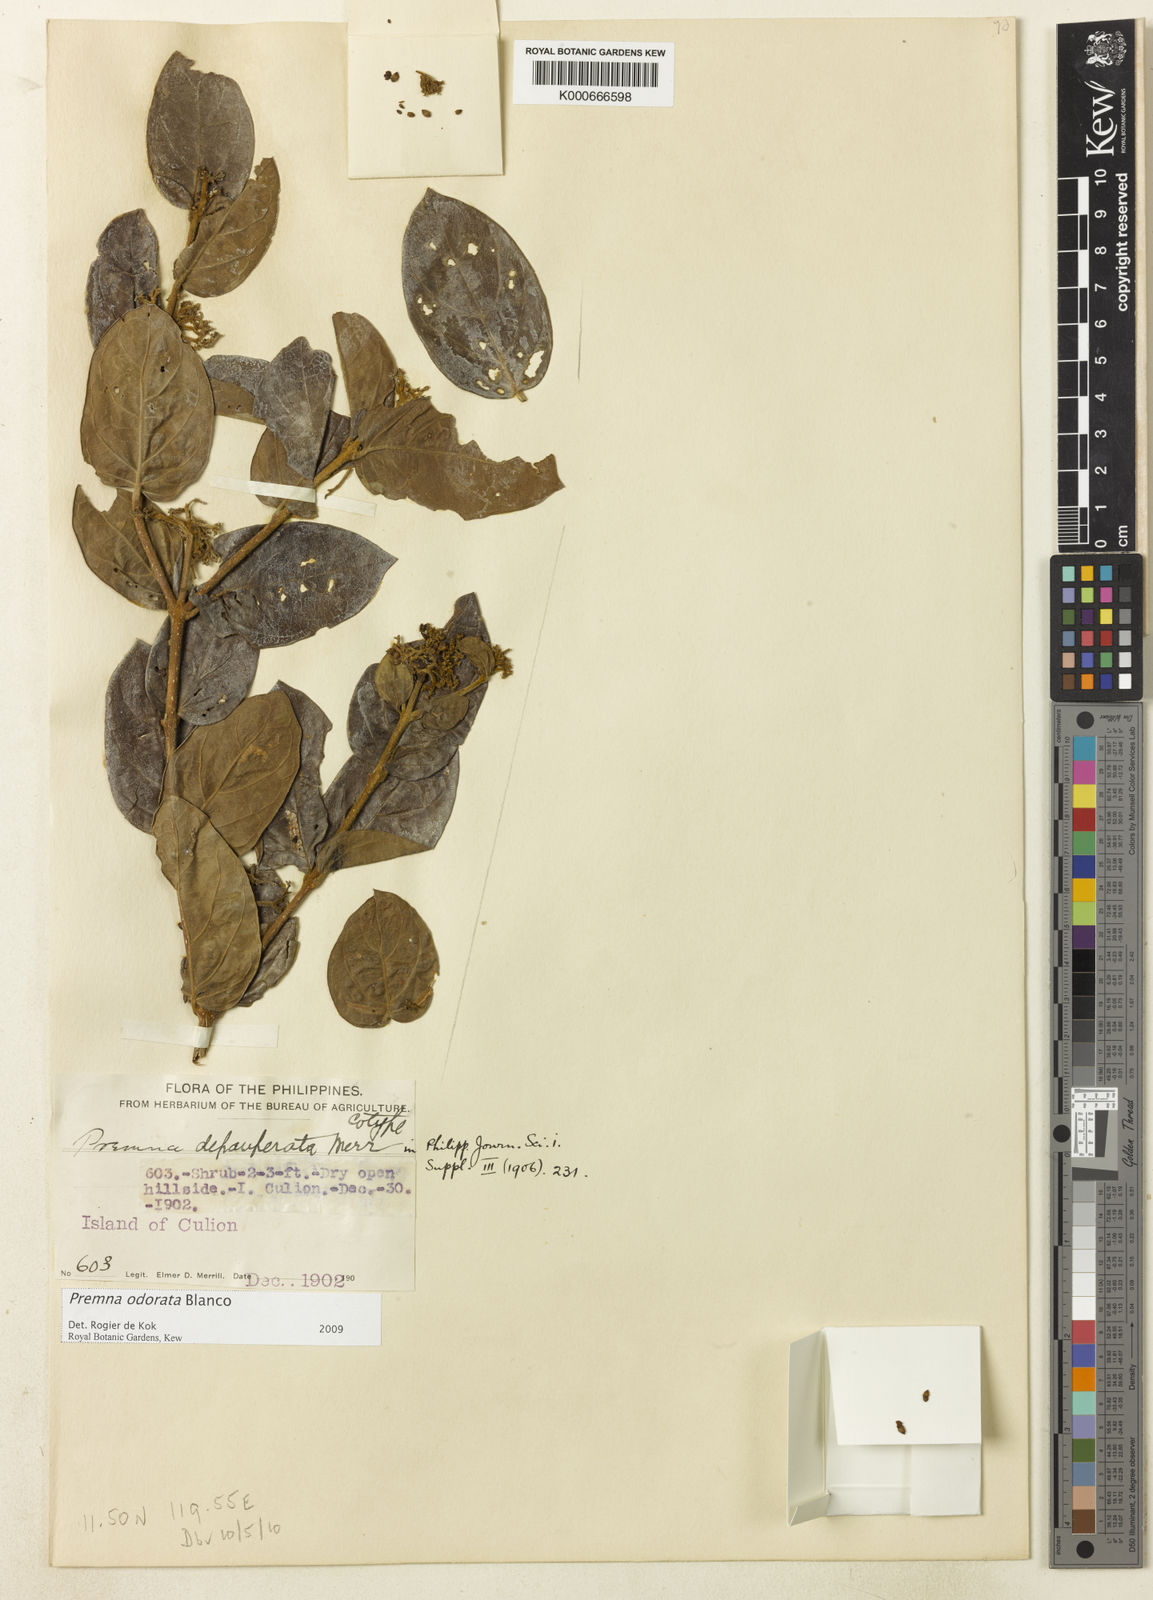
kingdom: Plantae
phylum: Tracheophyta
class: Magnoliopsida
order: Lamiales
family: Lamiaceae
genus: Premna
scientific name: Premna odorata
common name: Fragrant premna
